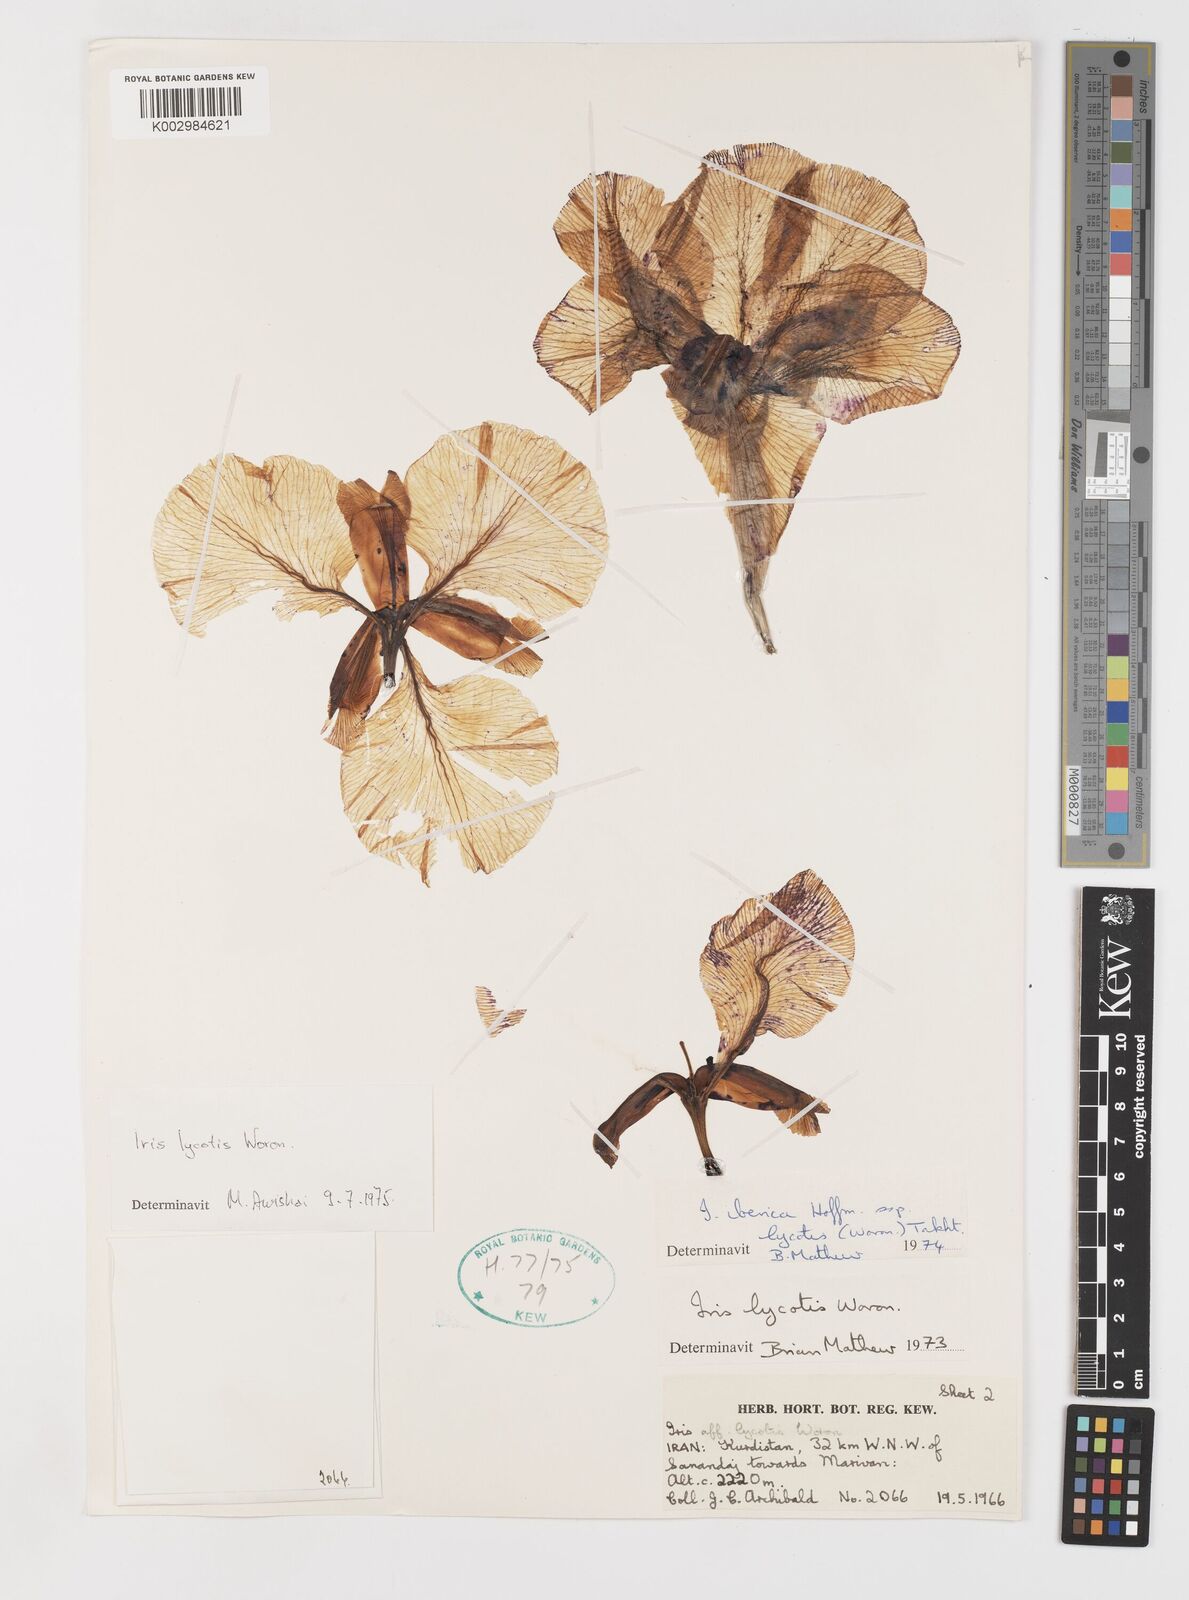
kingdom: Plantae
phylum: Tracheophyta
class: Liliopsida
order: Asparagales
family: Iridaceae
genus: Iris
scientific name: Iris lycotis
